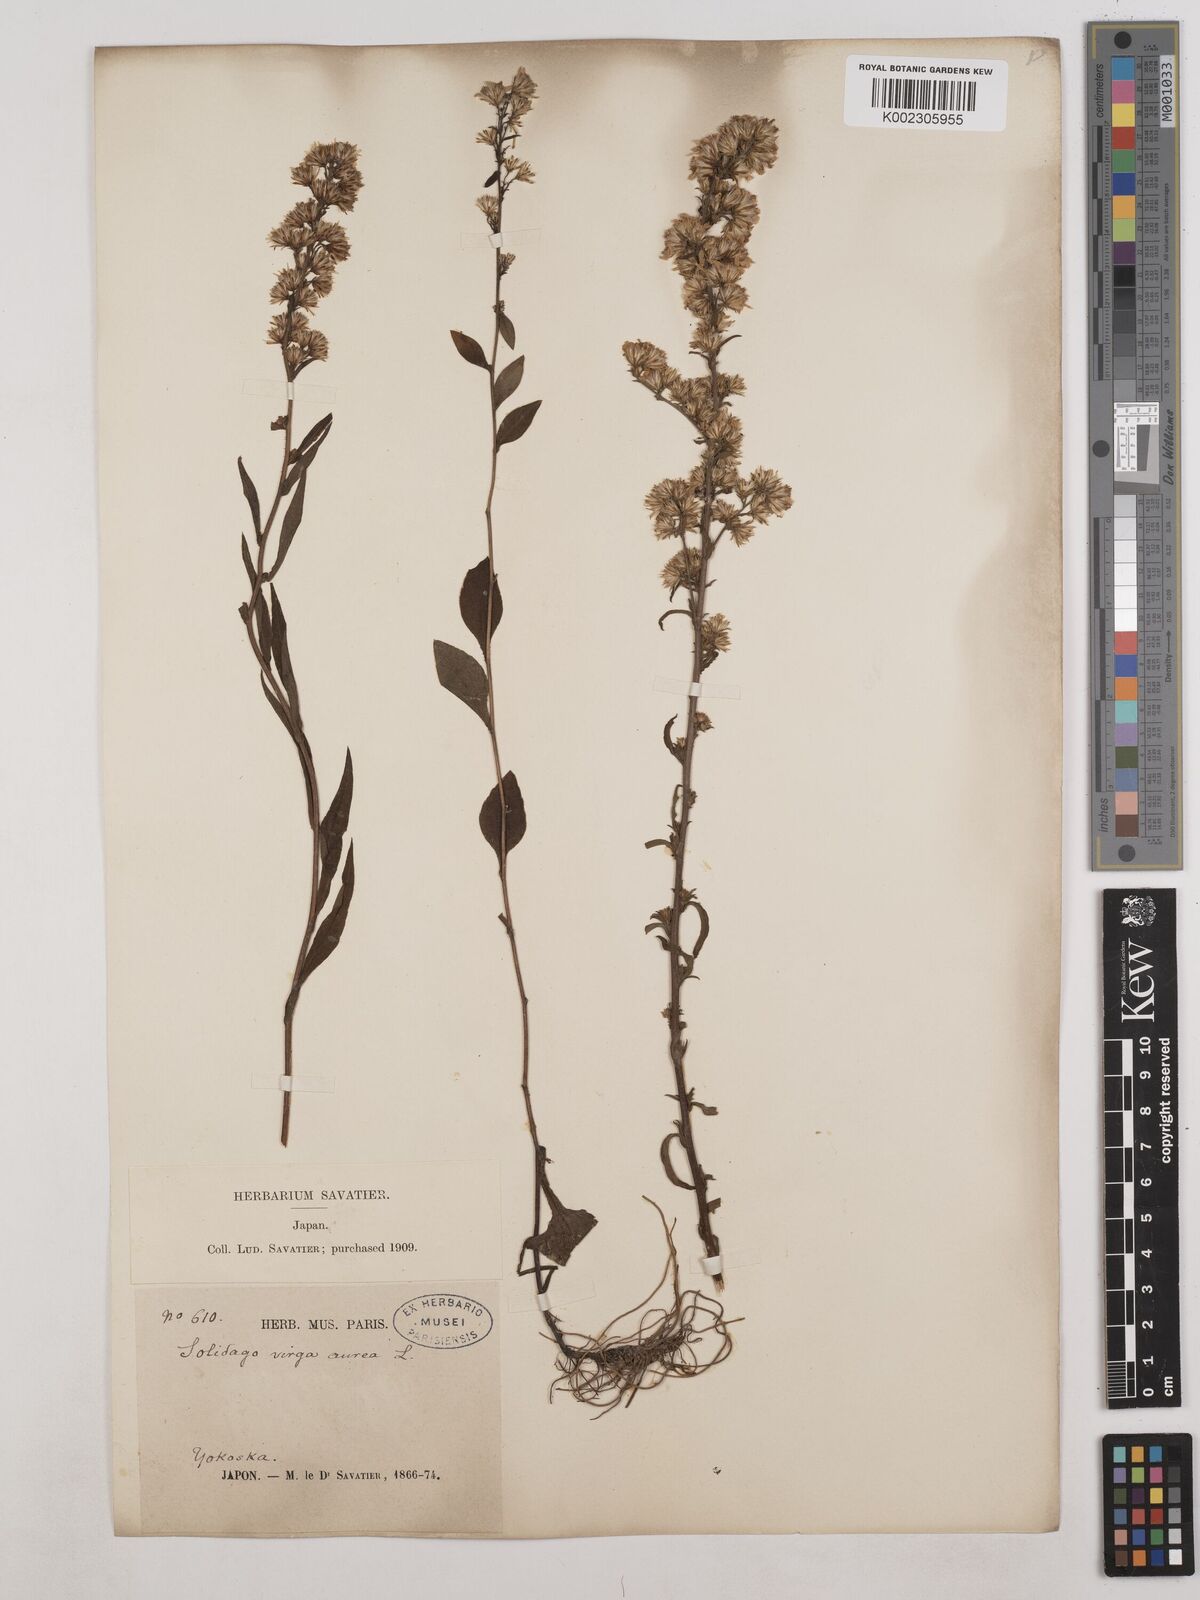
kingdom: Plantae
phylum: Tracheophyta
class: Magnoliopsida
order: Asterales
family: Asteraceae
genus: Solidago
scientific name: Solidago virgaurea
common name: Goldenrod
